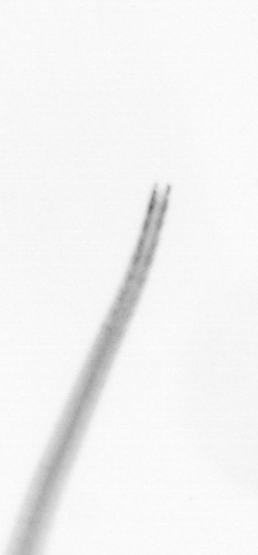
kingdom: Chromista
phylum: Ochrophyta
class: Bacillariophyceae
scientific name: Bacillariophyceae
